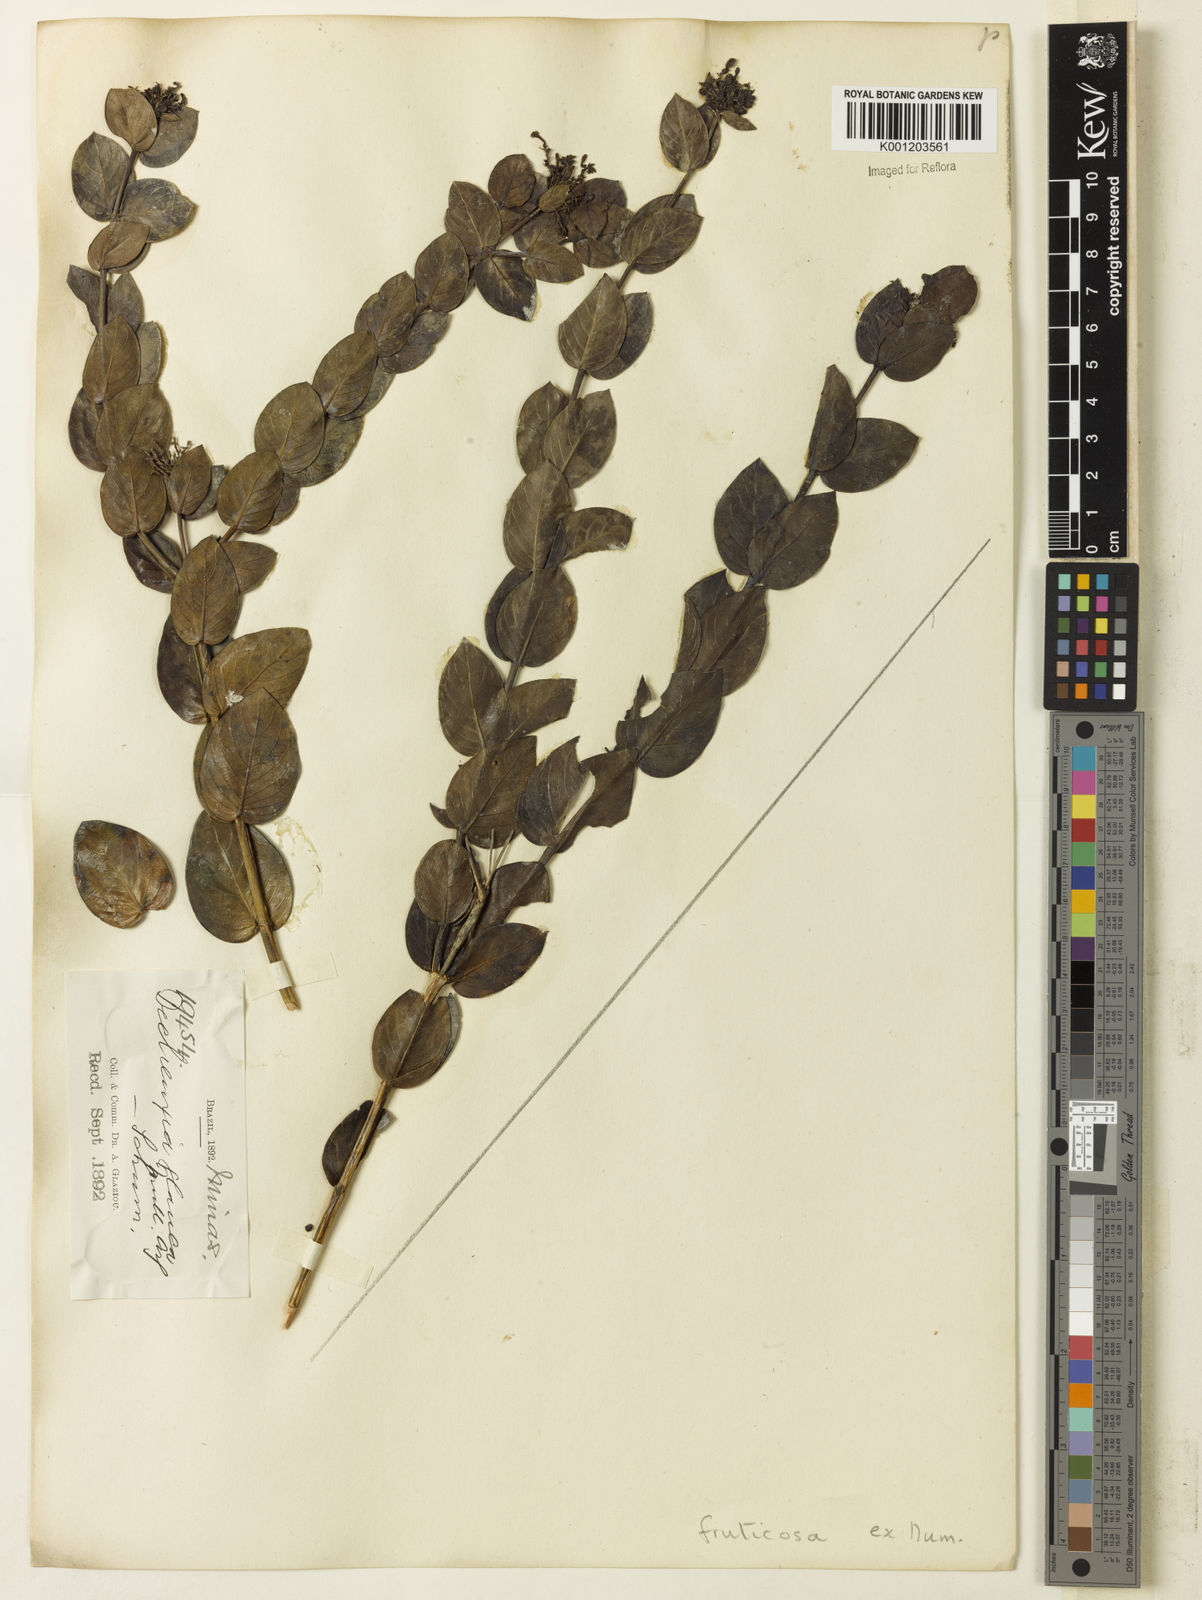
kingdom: Plantae
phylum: Tracheophyta
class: Magnoliopsida
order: Gentianales
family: Rubiaceae
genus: Declieuxia
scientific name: Declieuxia fruticosa
